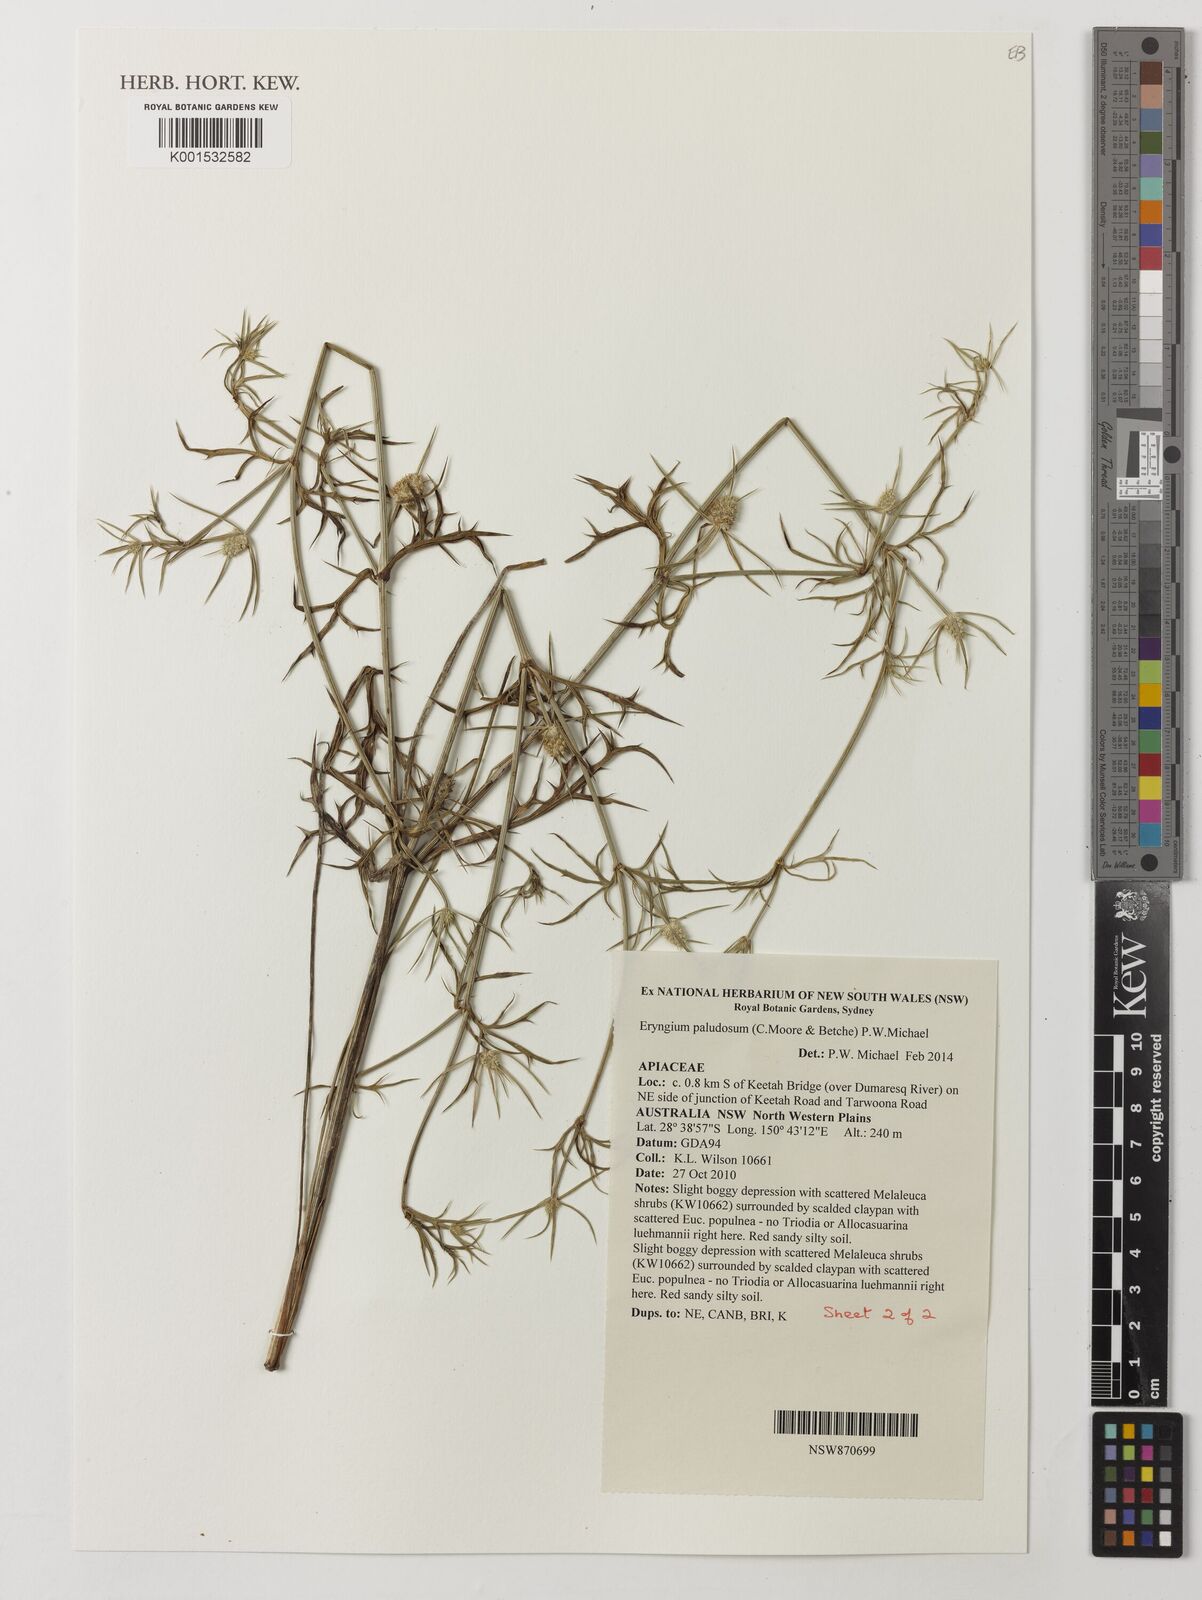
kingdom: Plantae
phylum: Tracheophyta
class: Magnoliopsida
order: Apiales
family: Apiaceae
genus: Eryngium
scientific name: Eryngium paludosum
